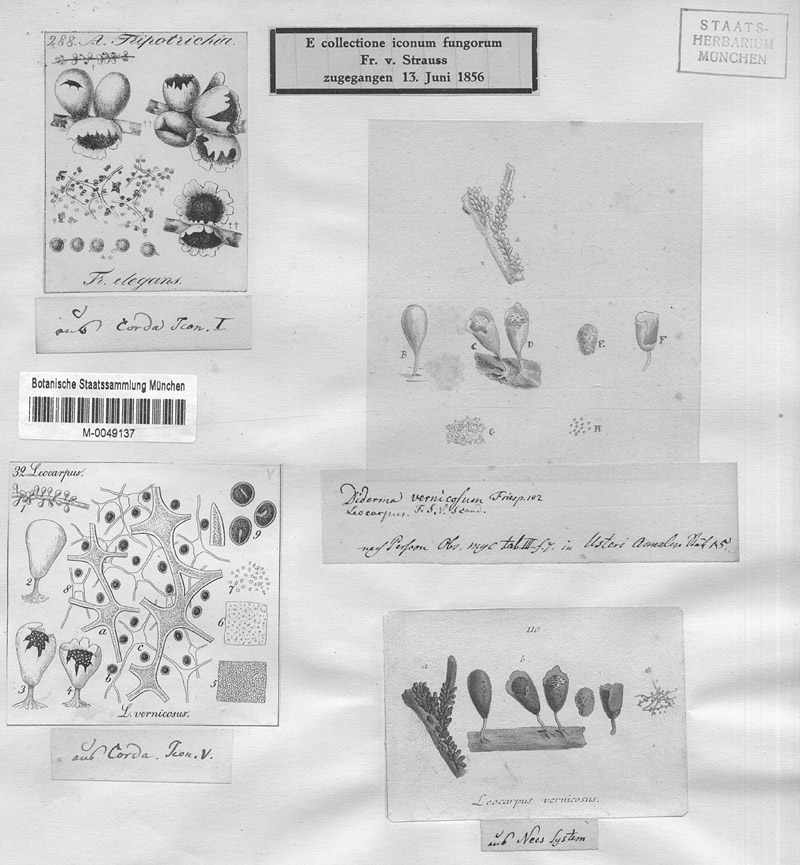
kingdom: Protozoa
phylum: Mycetozoa
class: Myxomycetes
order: Physarales
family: Physaraceae
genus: Leocarpus
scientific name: Leocarpus fragilis
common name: Insect-egg slime
